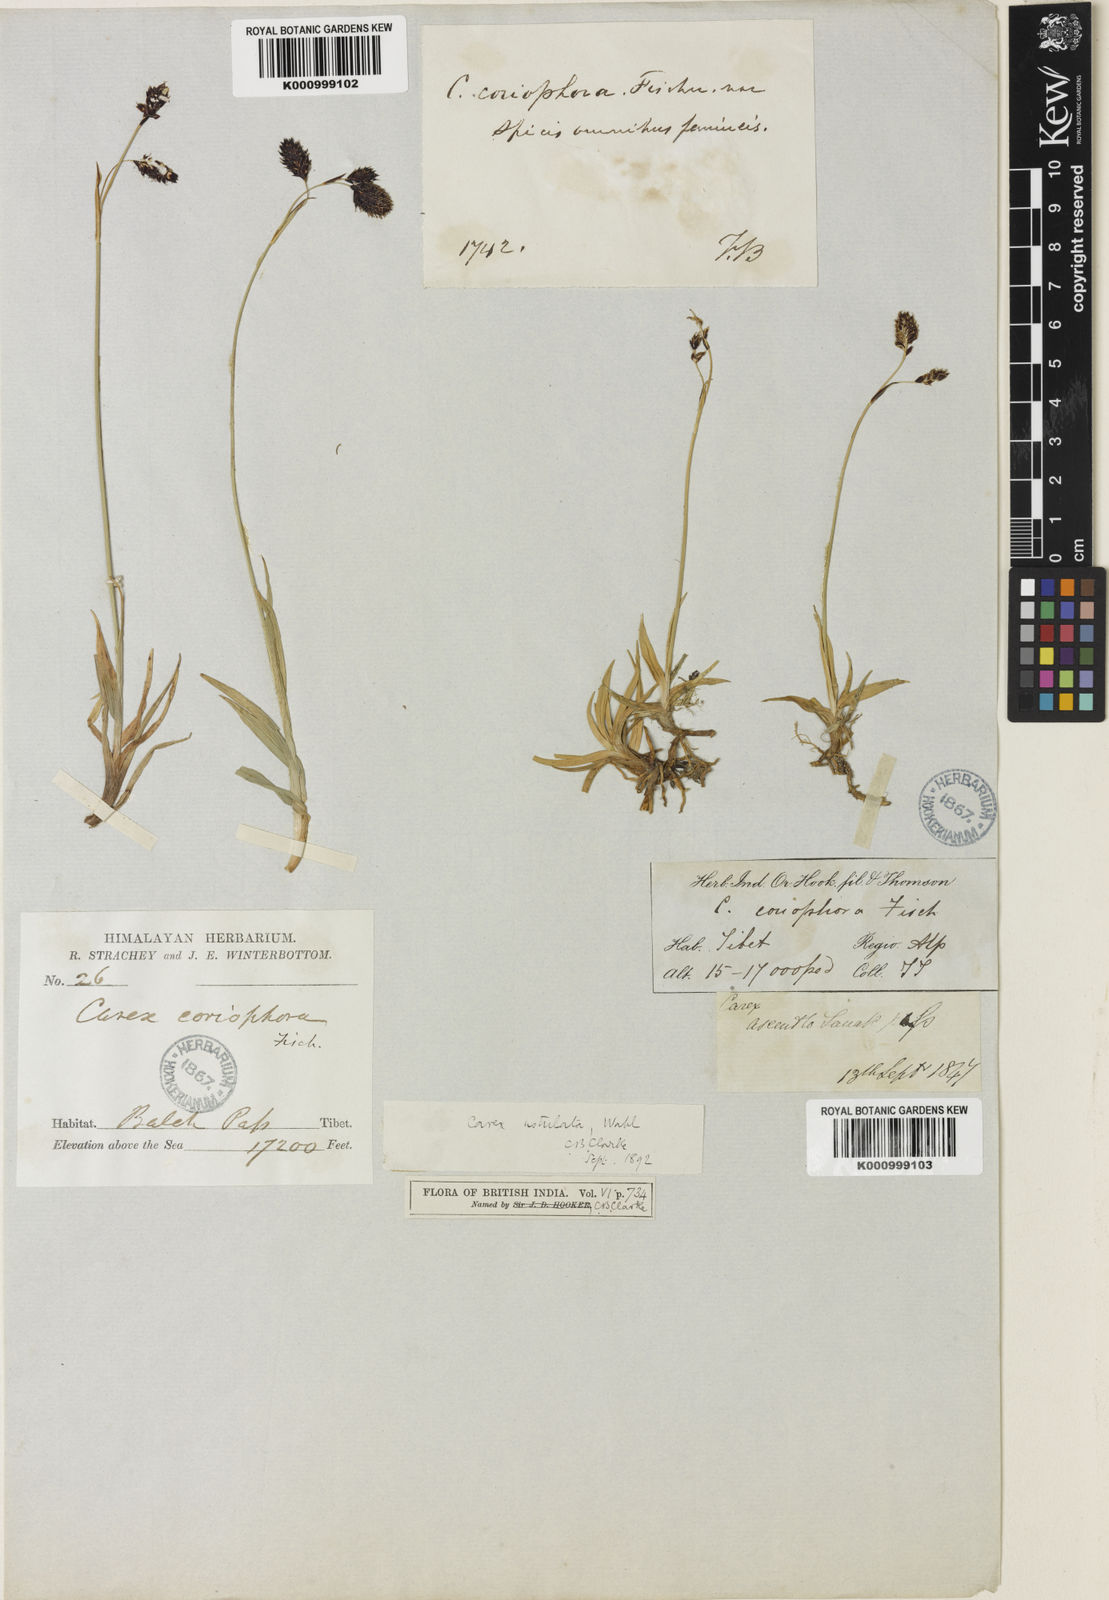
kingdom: Plantae
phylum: Tracheophyta
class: Liliopsida
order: Poales
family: Cyperaceae
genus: Carex
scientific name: Carex hypsobates
